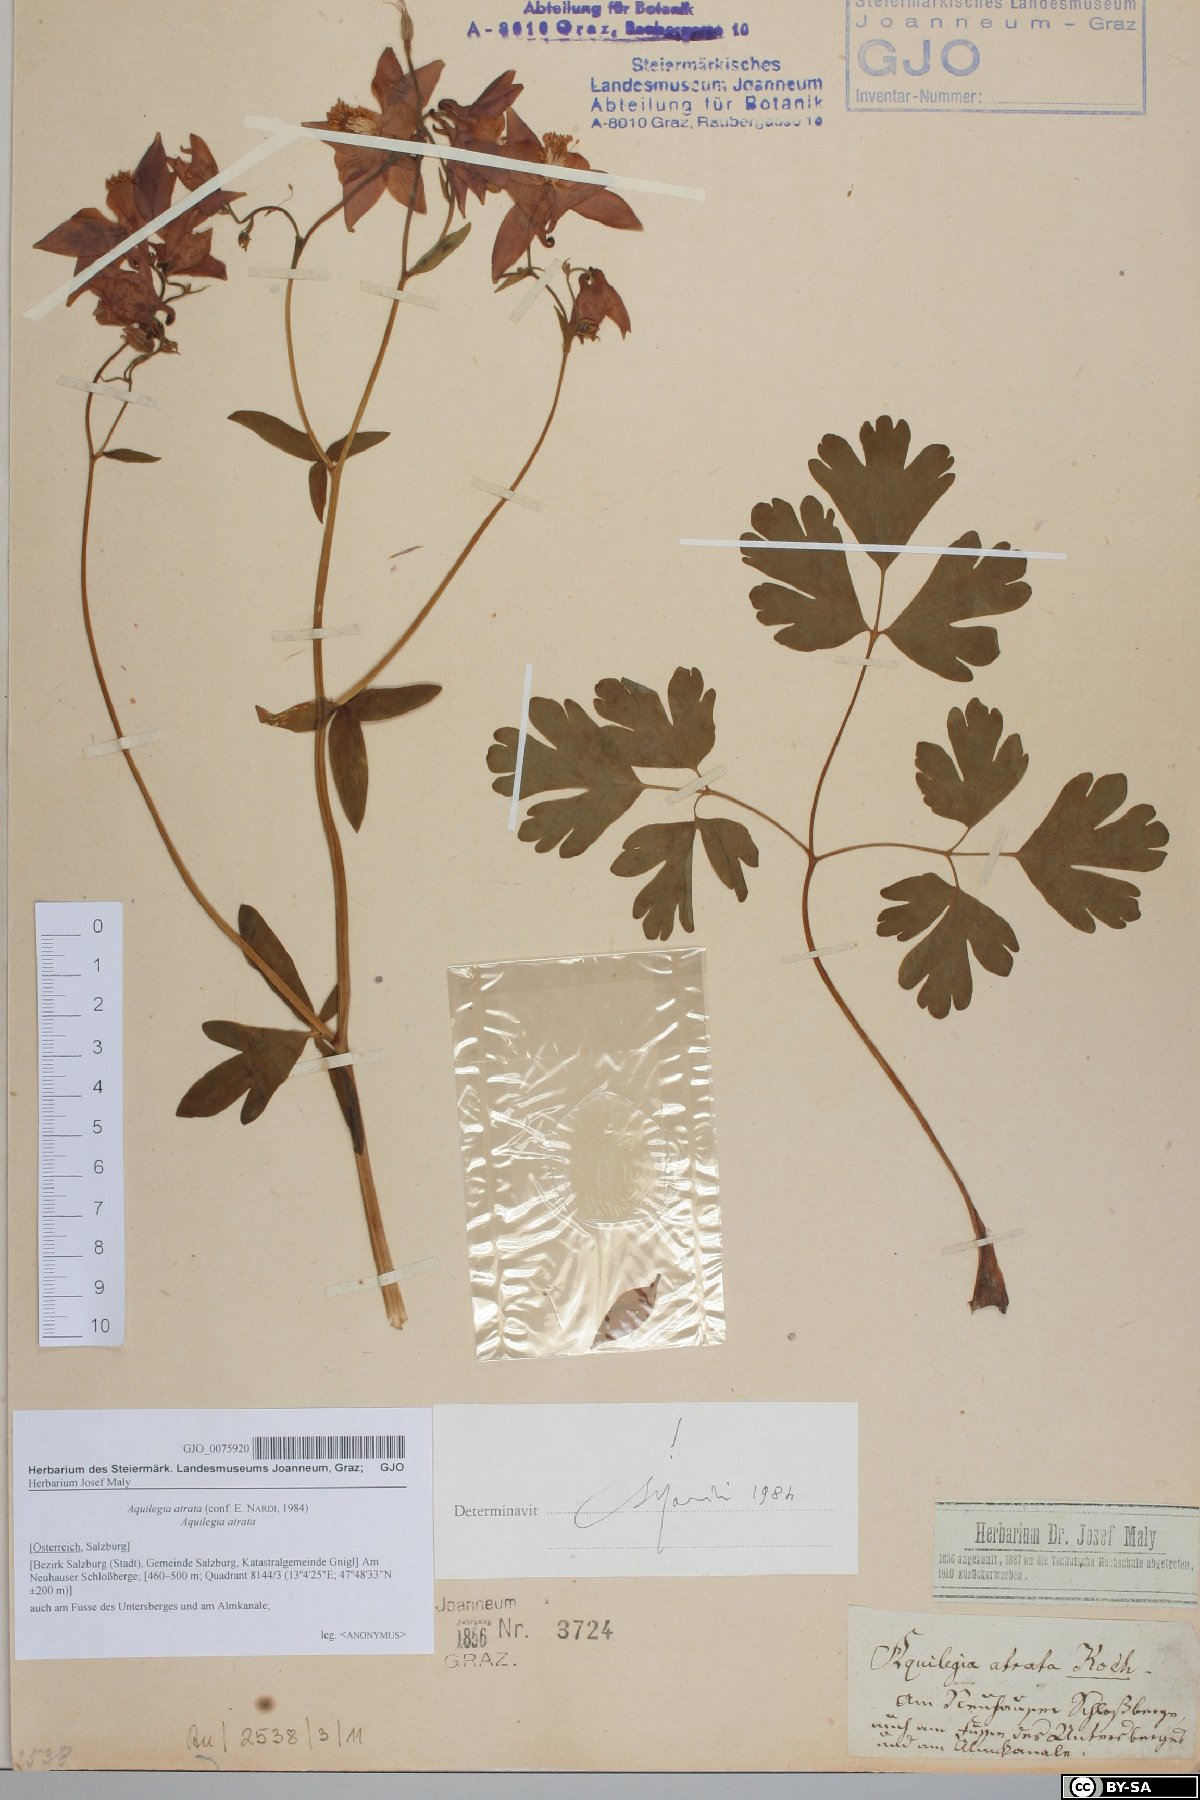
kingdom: Plantae
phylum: Tracheophyta
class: Magnoliopsida
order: Ranunculales
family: Ranunculaceae
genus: Aquilegia
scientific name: Aquilegia atrata
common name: Dark columbine
